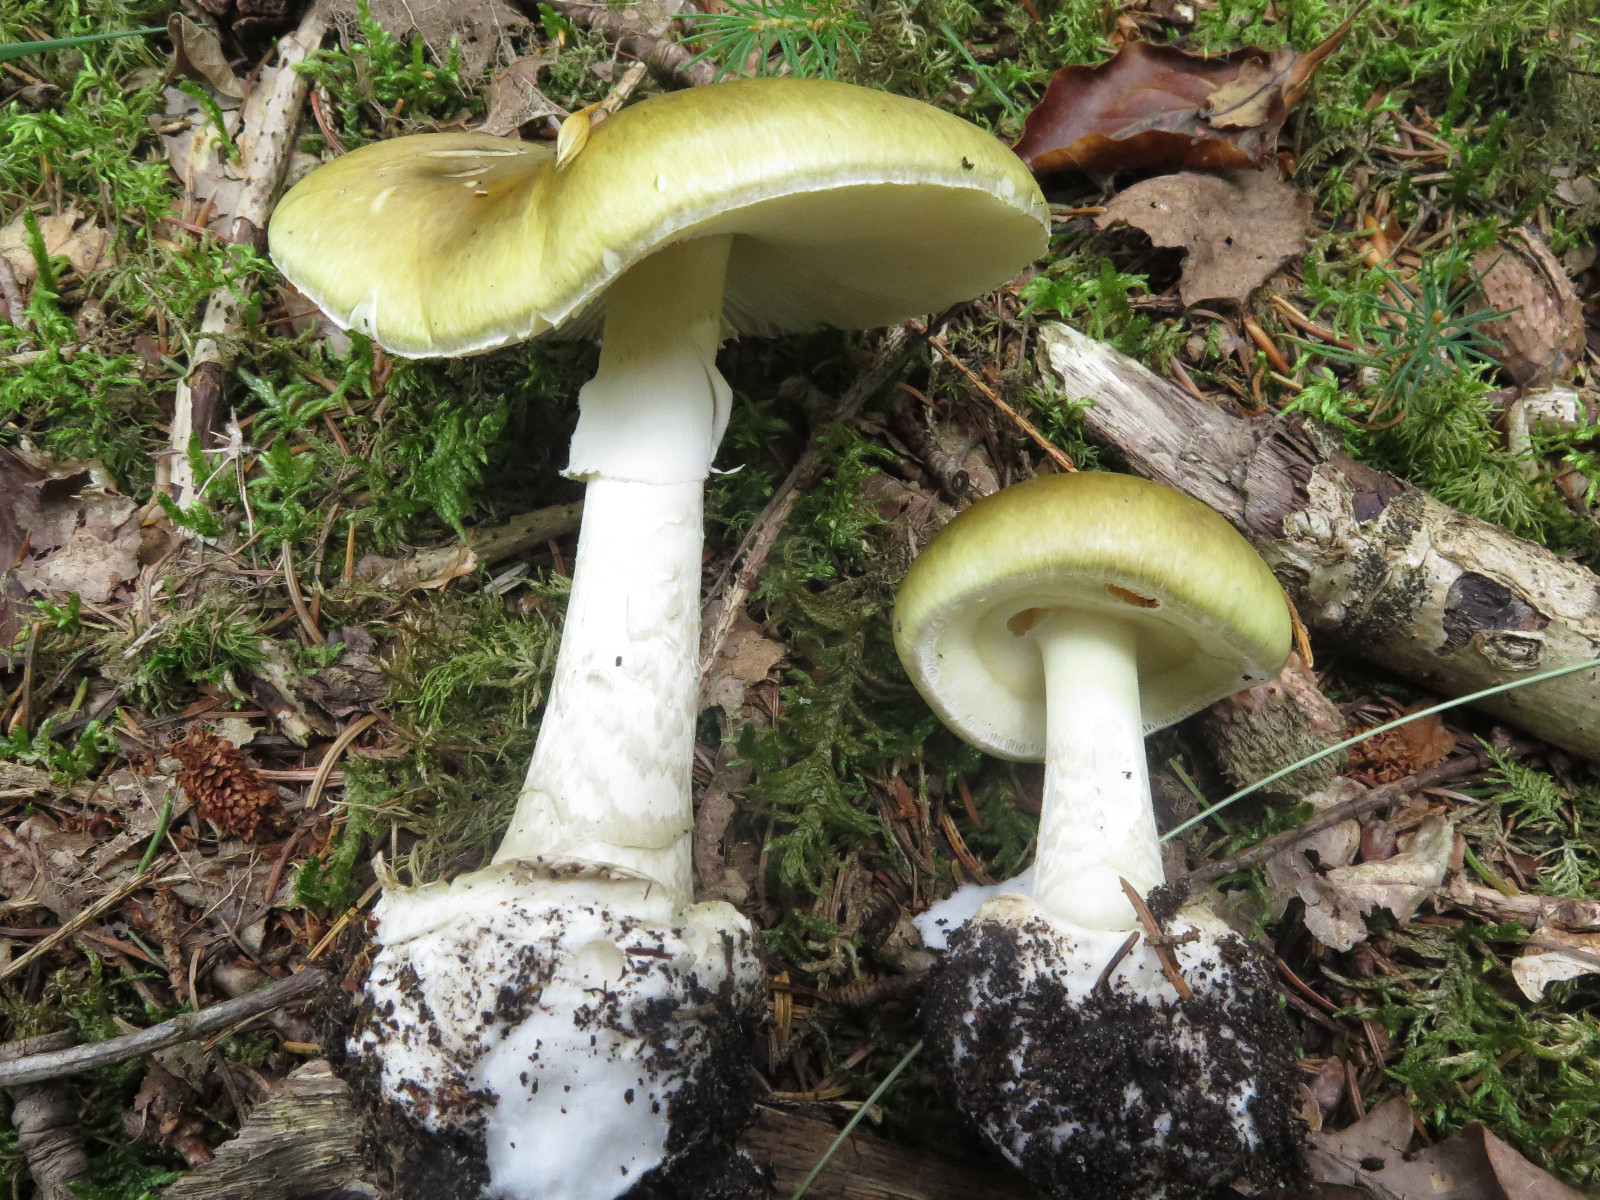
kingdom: Fungi
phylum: Basidiomycota
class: Agaricomycetes
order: Agaricales
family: Amanitaceae
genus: Amanita
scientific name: Amanita phalloides
